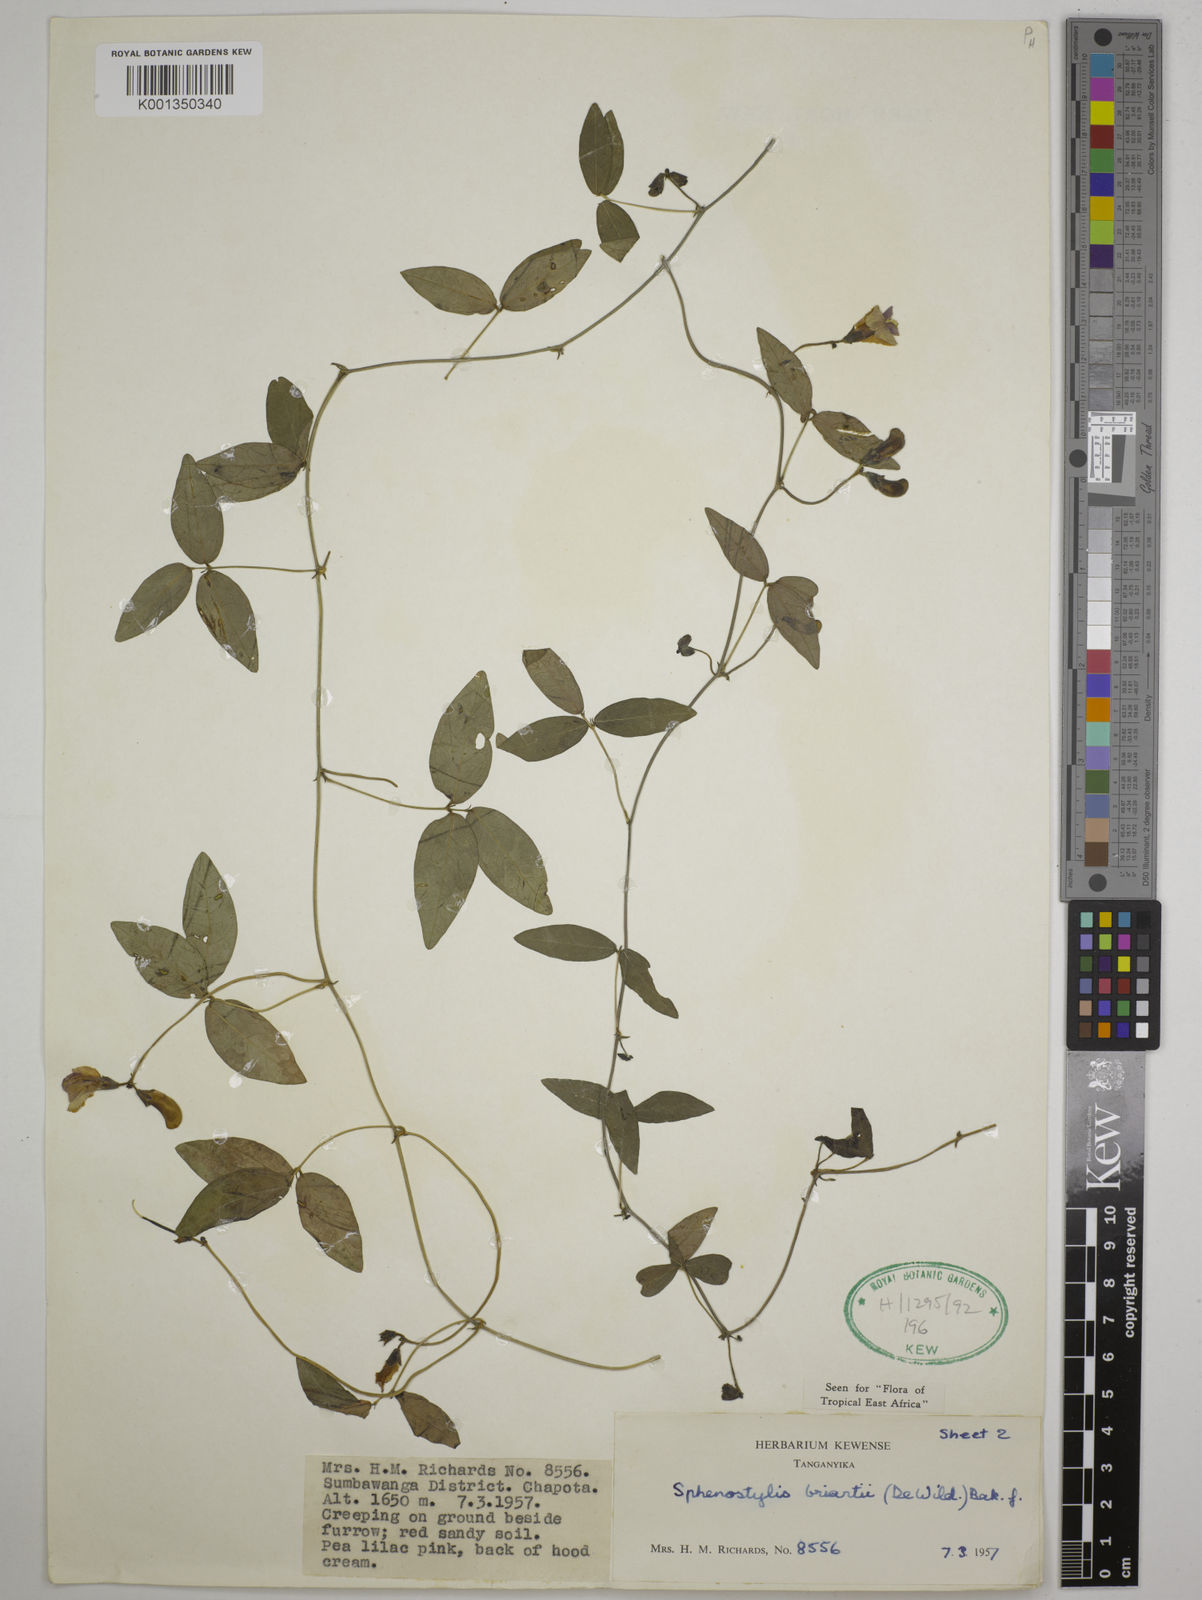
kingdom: Plantae
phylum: Tracheophyta
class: Magnoliopsida
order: Fabales
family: Fabaceae
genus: Sphenostylis
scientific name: Sphenostylis briartii
